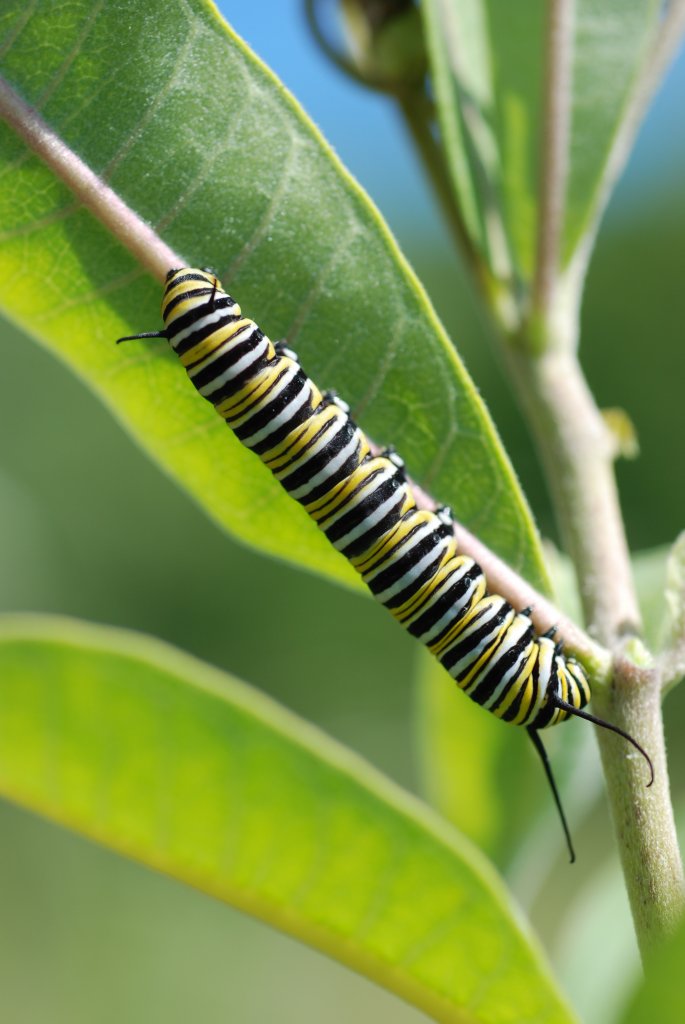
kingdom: Animalia
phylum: Arthropoda
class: Insecta
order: Lepidoptera
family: Nymphalidae
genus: Danaus
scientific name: Danaus plexippus
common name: Monarch
